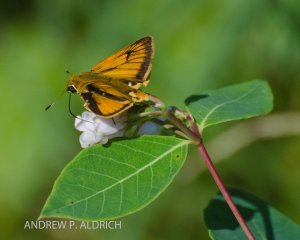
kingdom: Animalia
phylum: Arthropoda
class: Insecta
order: Lepidoptera
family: Hesperiidae
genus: Atrytone
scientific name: Atrytone delaware
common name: Delaware Skipper
